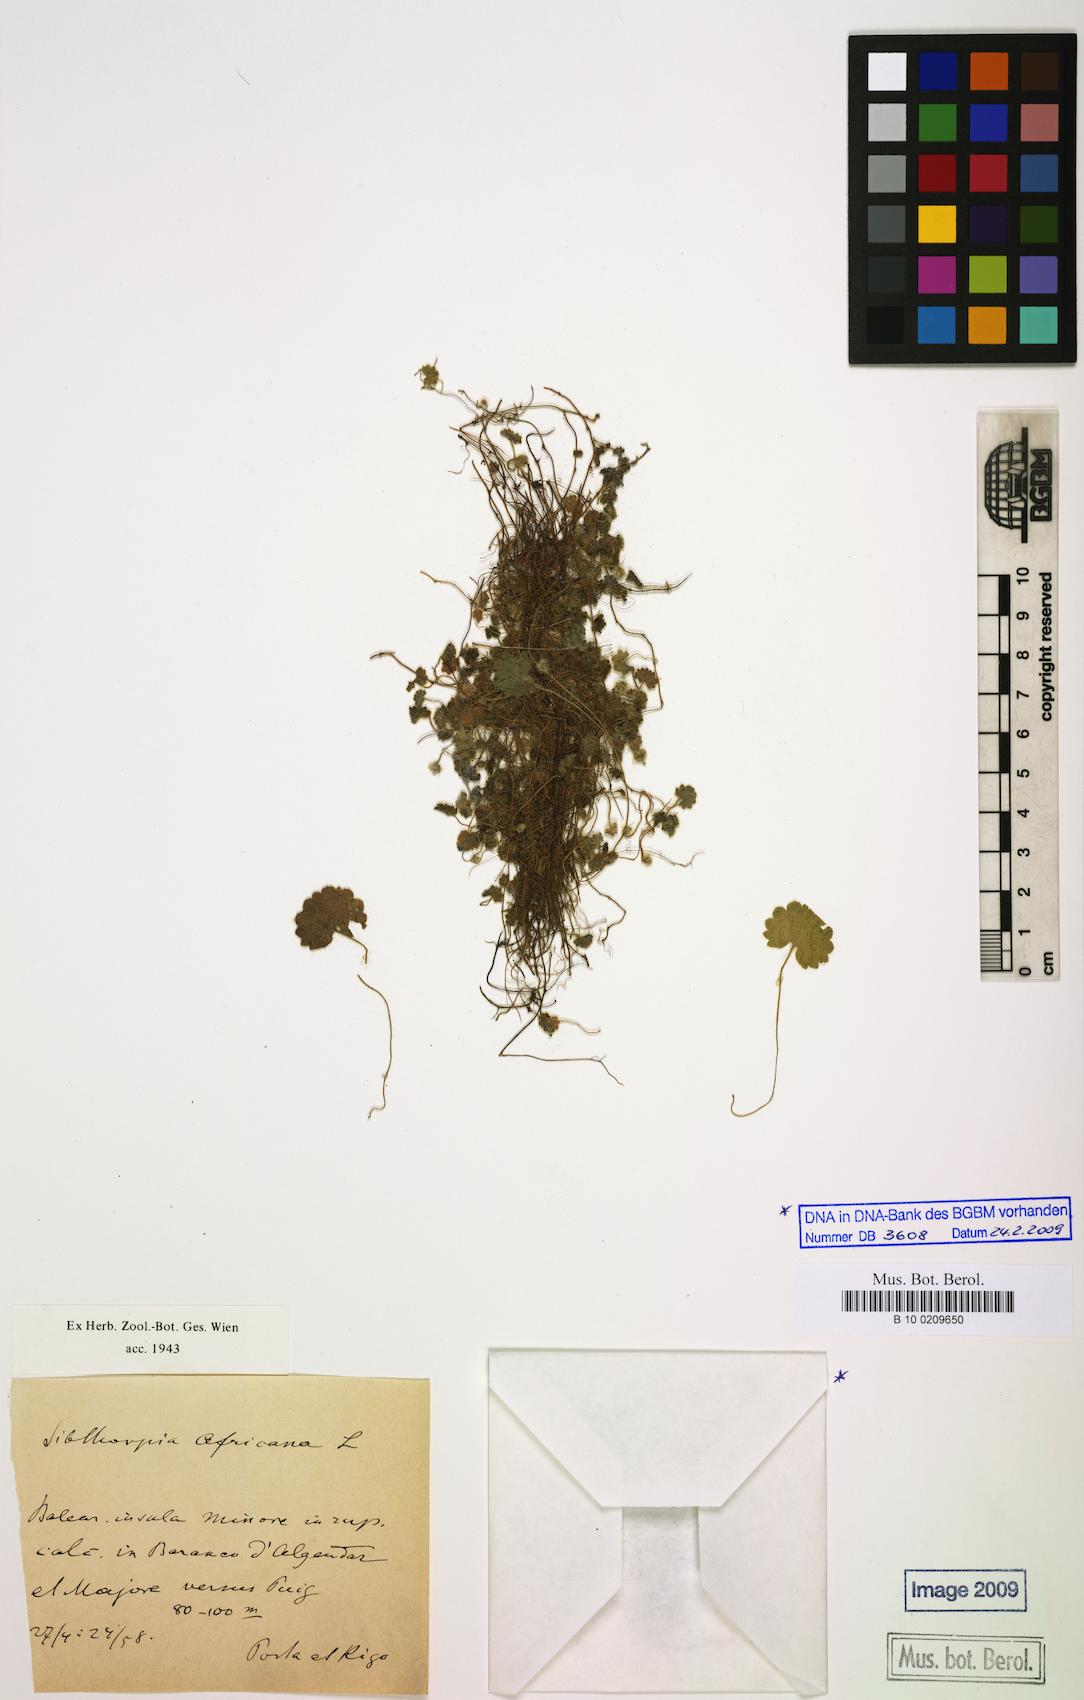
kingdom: Plantae
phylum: Tracheophyta
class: Magnoliopsida
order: Lamiales
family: Plantaginaceae
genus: Sibthorpia
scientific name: Sibthorpia africana
